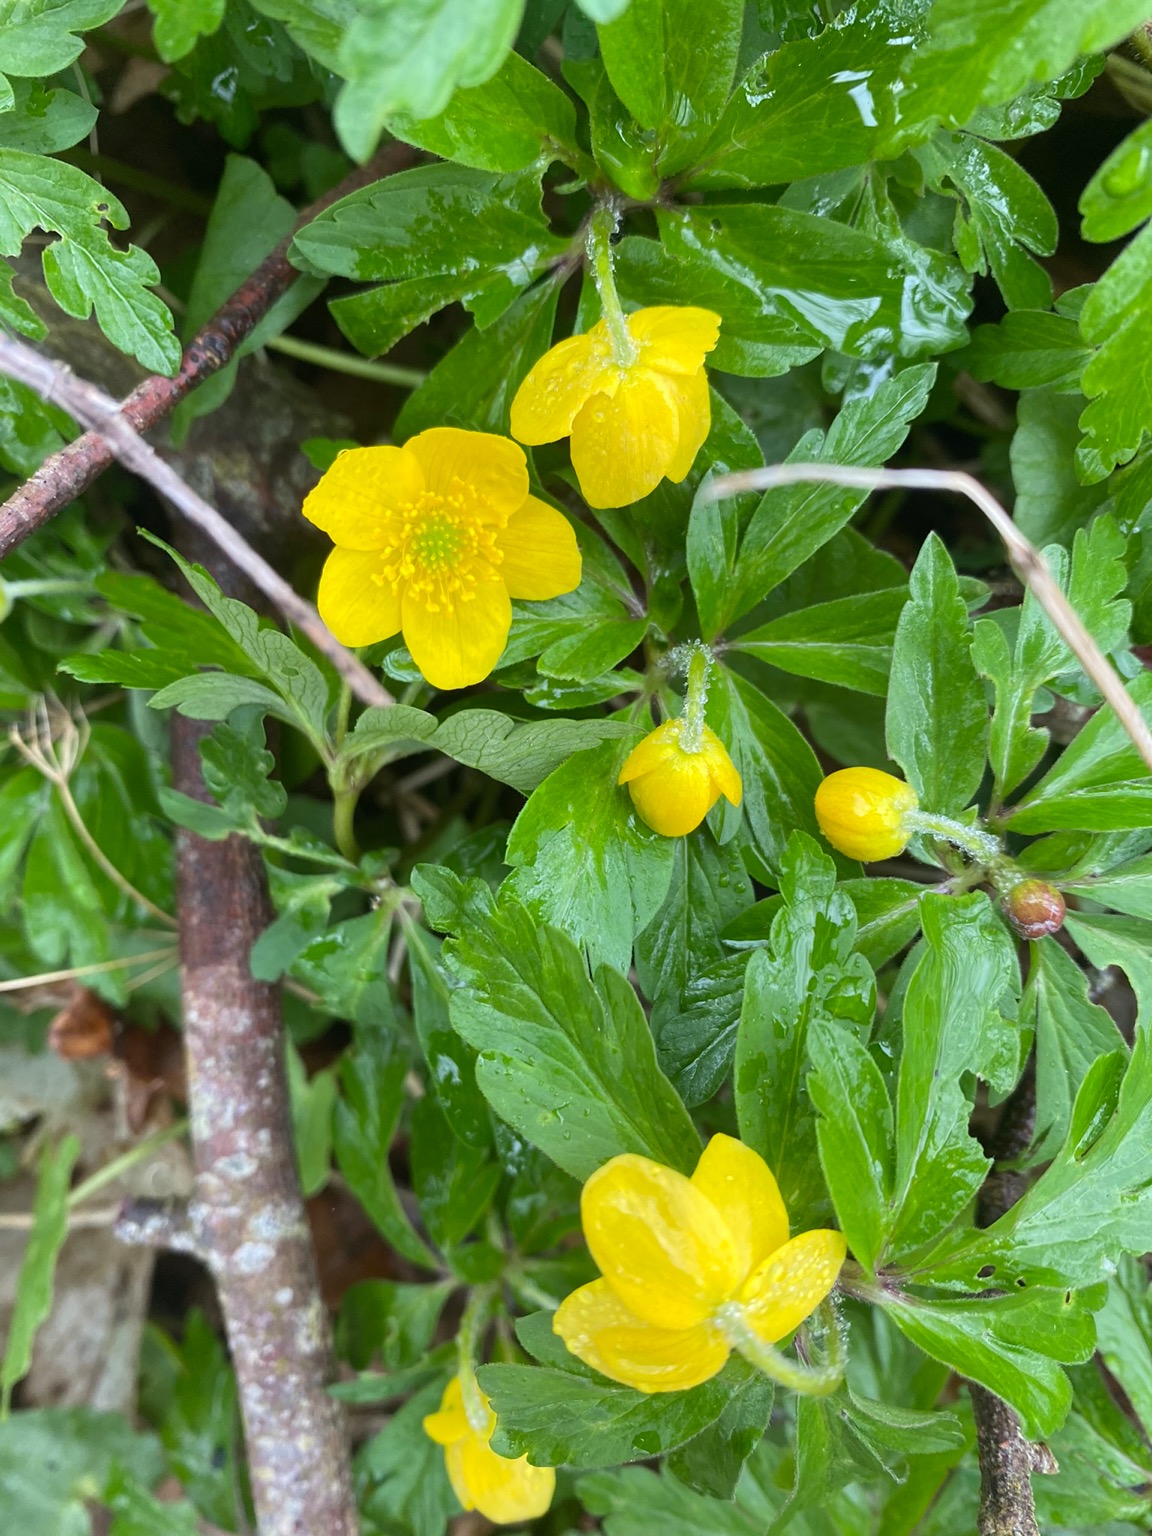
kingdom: Plantae
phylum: Tracheophyta
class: Magnoliopsida
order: Ranunculales
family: Ranunculaceae
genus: Anemone
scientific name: Anemone ranunculoides
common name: Gul anemone
